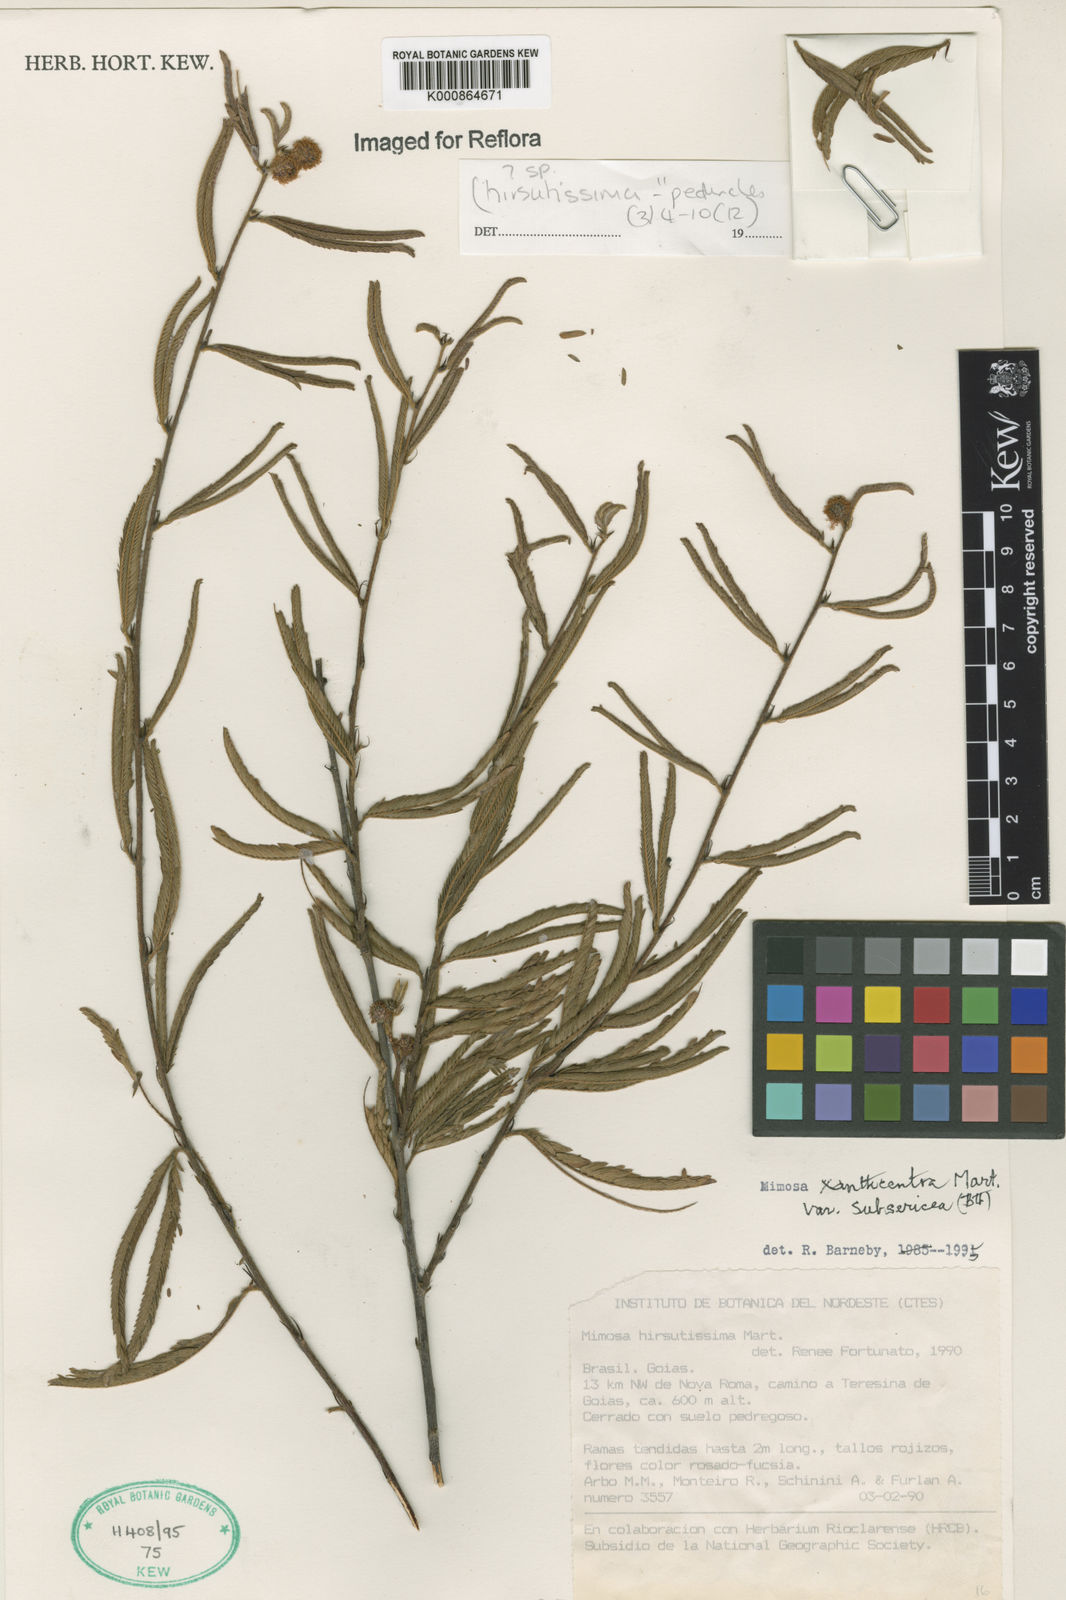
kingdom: Plantae
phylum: Tracheophyta
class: Magnoliopsida
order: Fabales
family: Fabaceae
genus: Mimosa
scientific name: Mimosa xanthocentra
